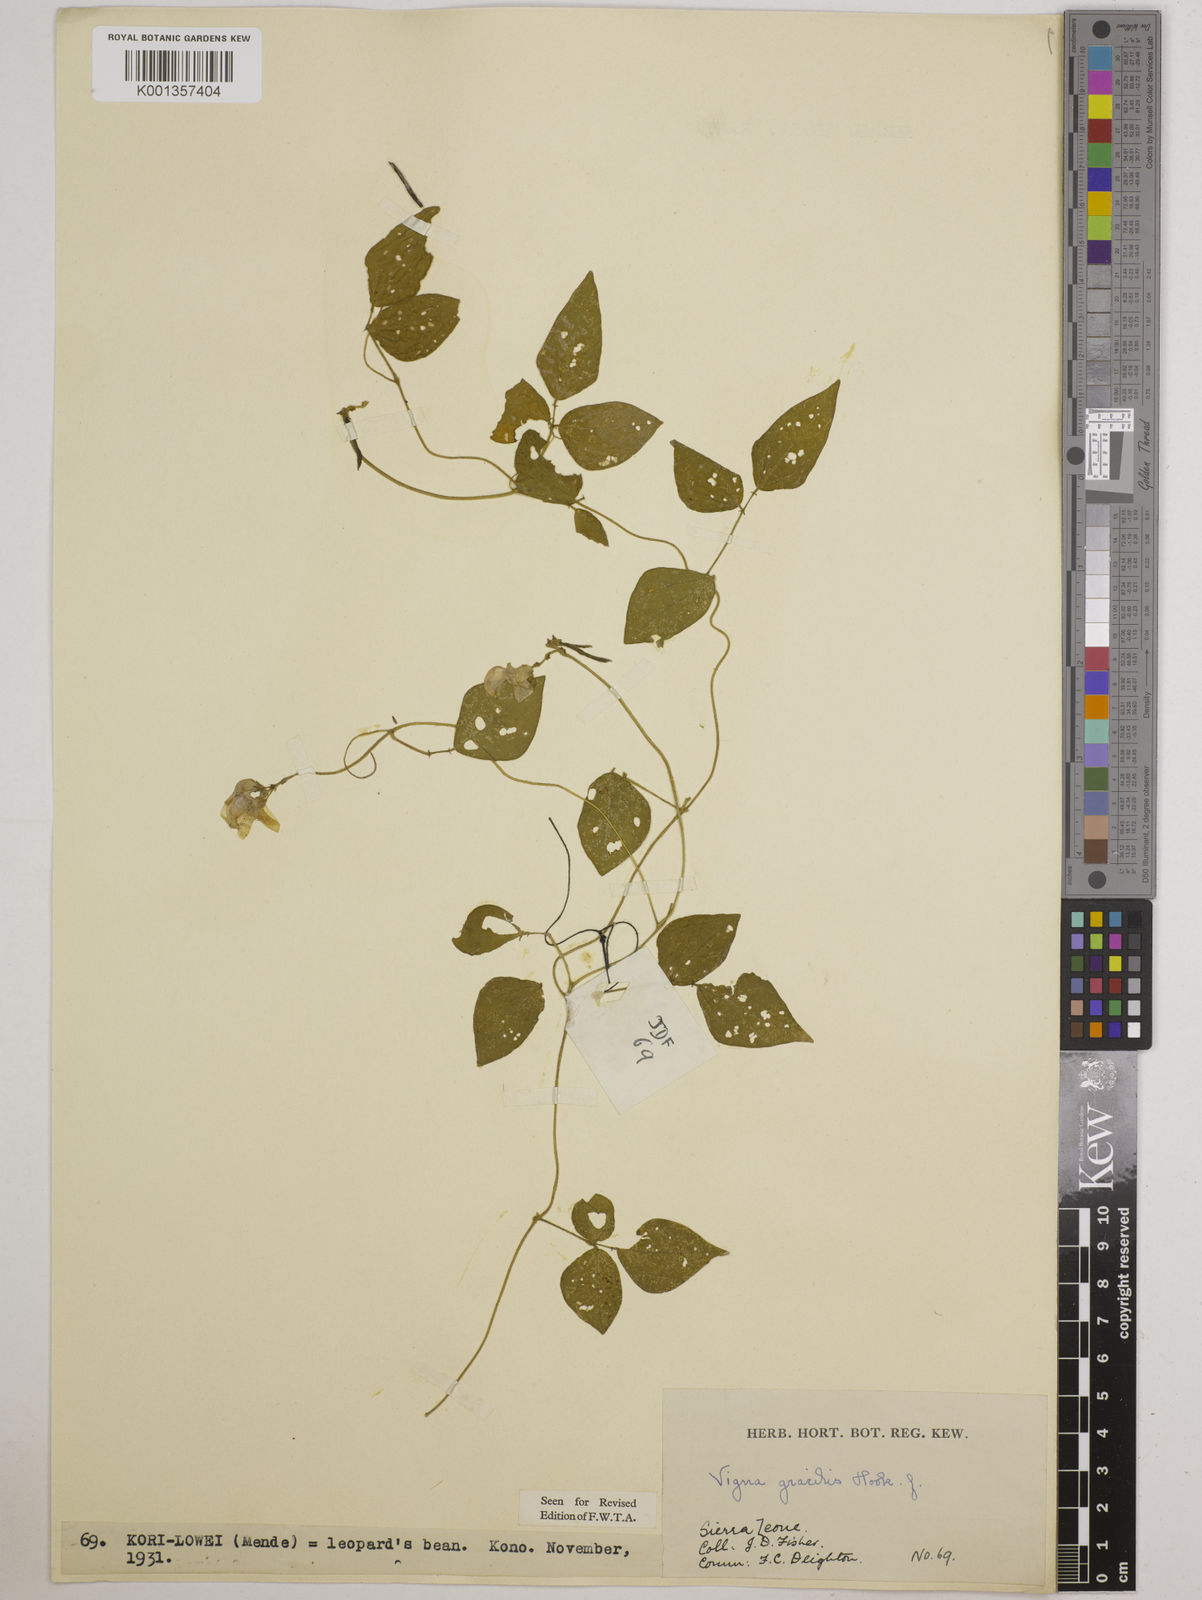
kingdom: Plantae
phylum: Tracheophyta
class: Magnoliopsida
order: Fabales
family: Fabaceae
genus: Vigna
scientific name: Vigna gracilis
